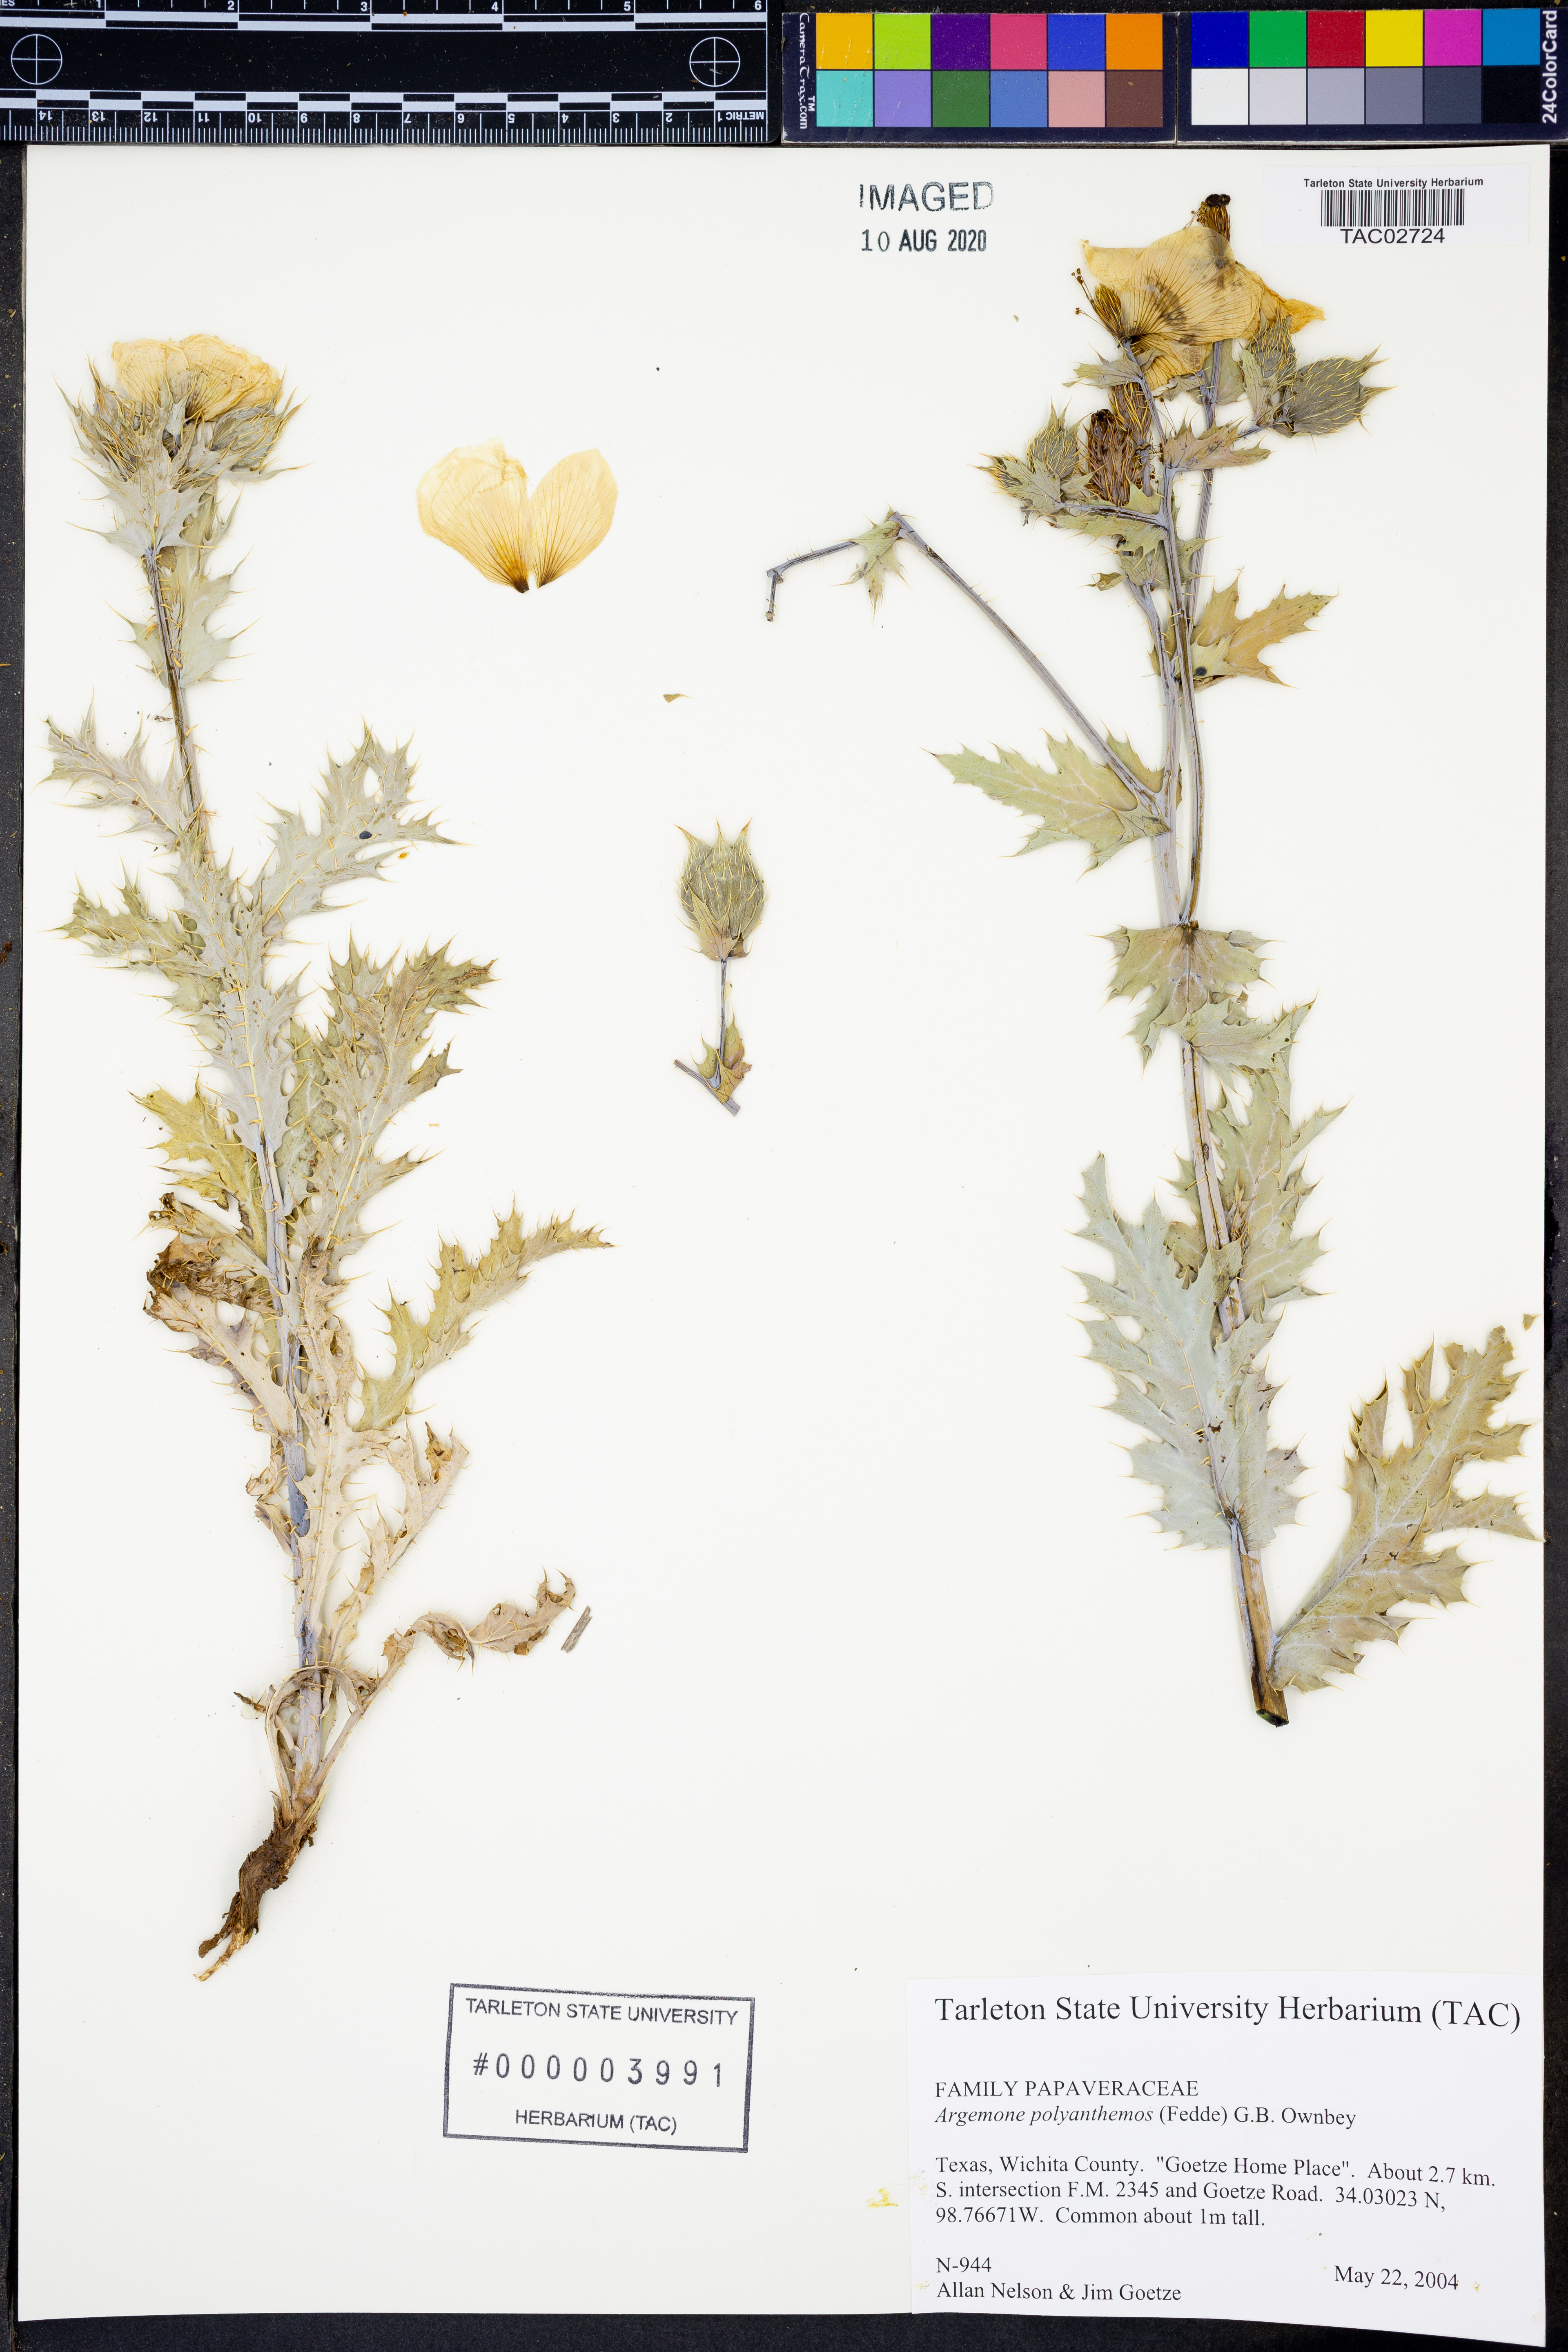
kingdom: Plantae
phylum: Tracheophyta
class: Magnoliopsida
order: Ranunculales
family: Papaveraceae
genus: Argemone
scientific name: Argemone polyanthemos
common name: Plains prickly-poppy
